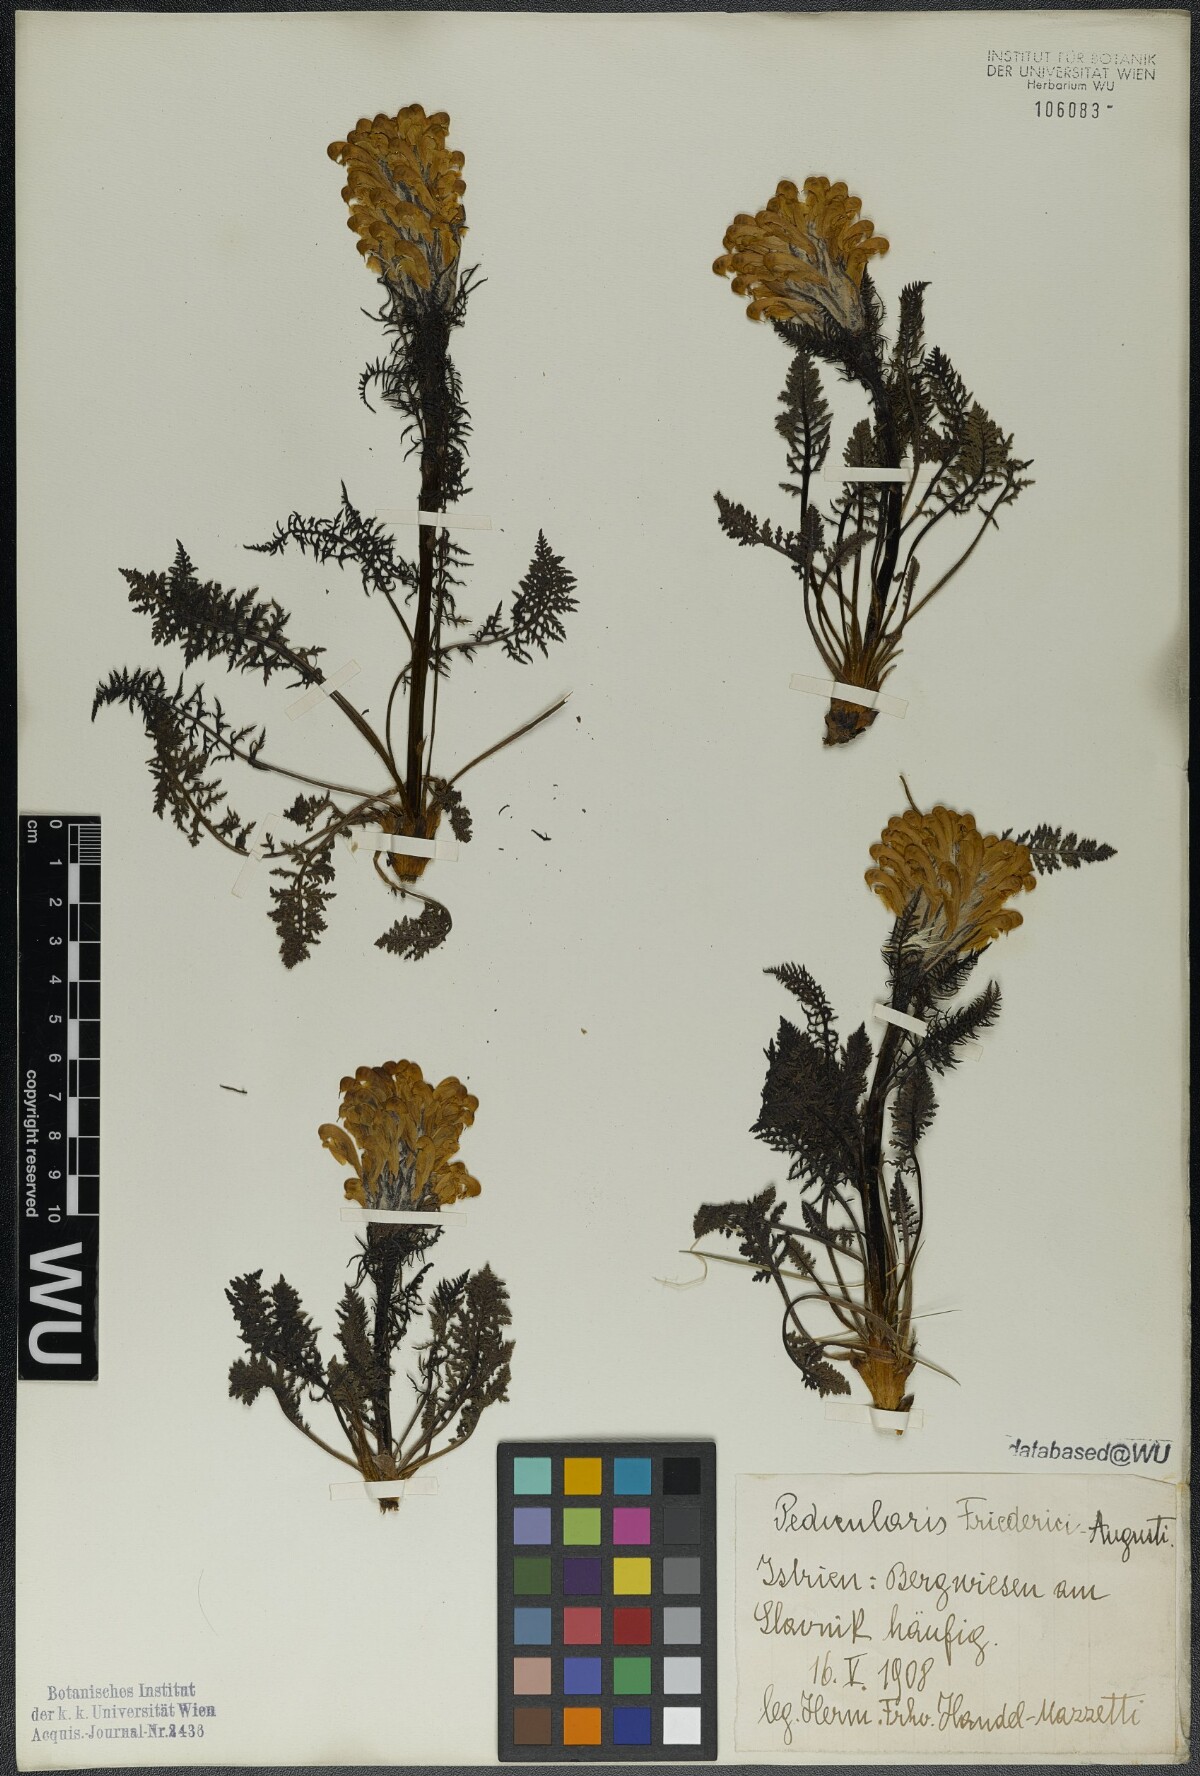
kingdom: Plantae
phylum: Tracheophyta
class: Magnoliopsida
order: Lamiales
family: Orobanchaceae
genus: Pedicularis
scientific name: Pedicularis friderici-augusti
